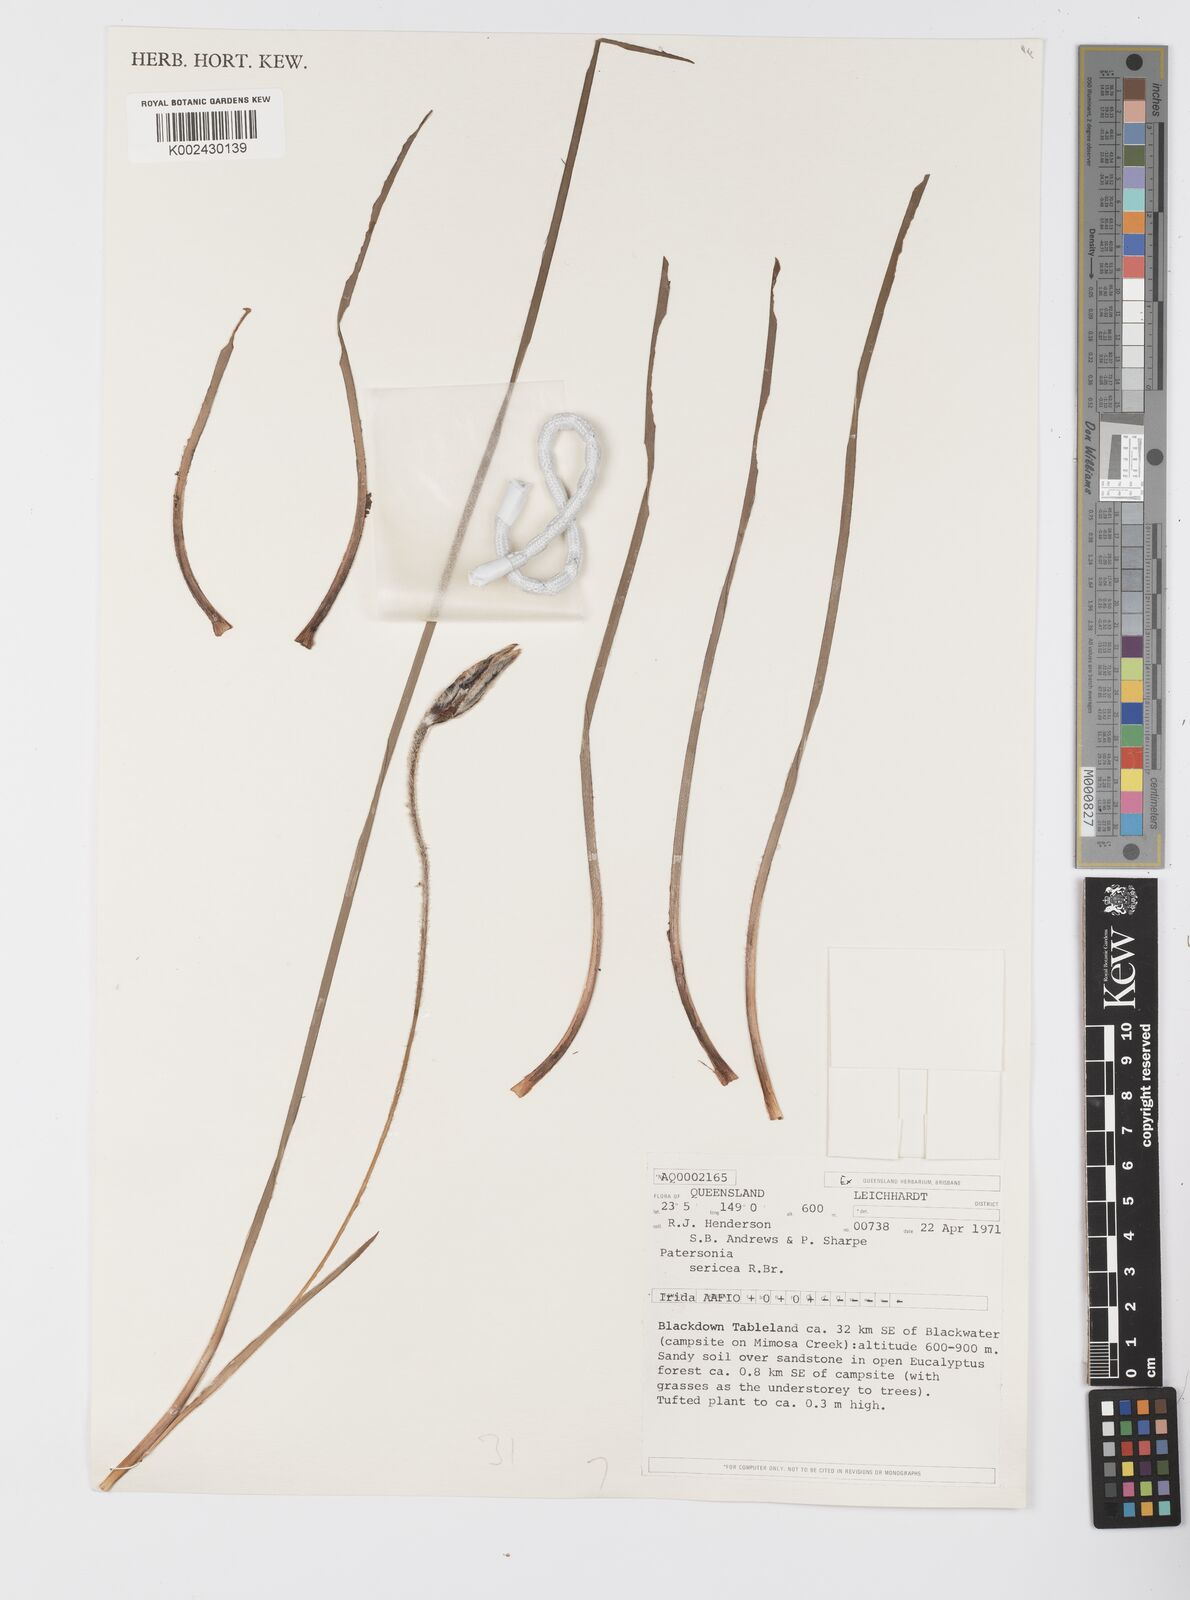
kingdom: Plantae
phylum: Tracheophyta
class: Liliopsida
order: Asparagales
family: Iridaceae
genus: Patersonia
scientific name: Patersonia sericea
